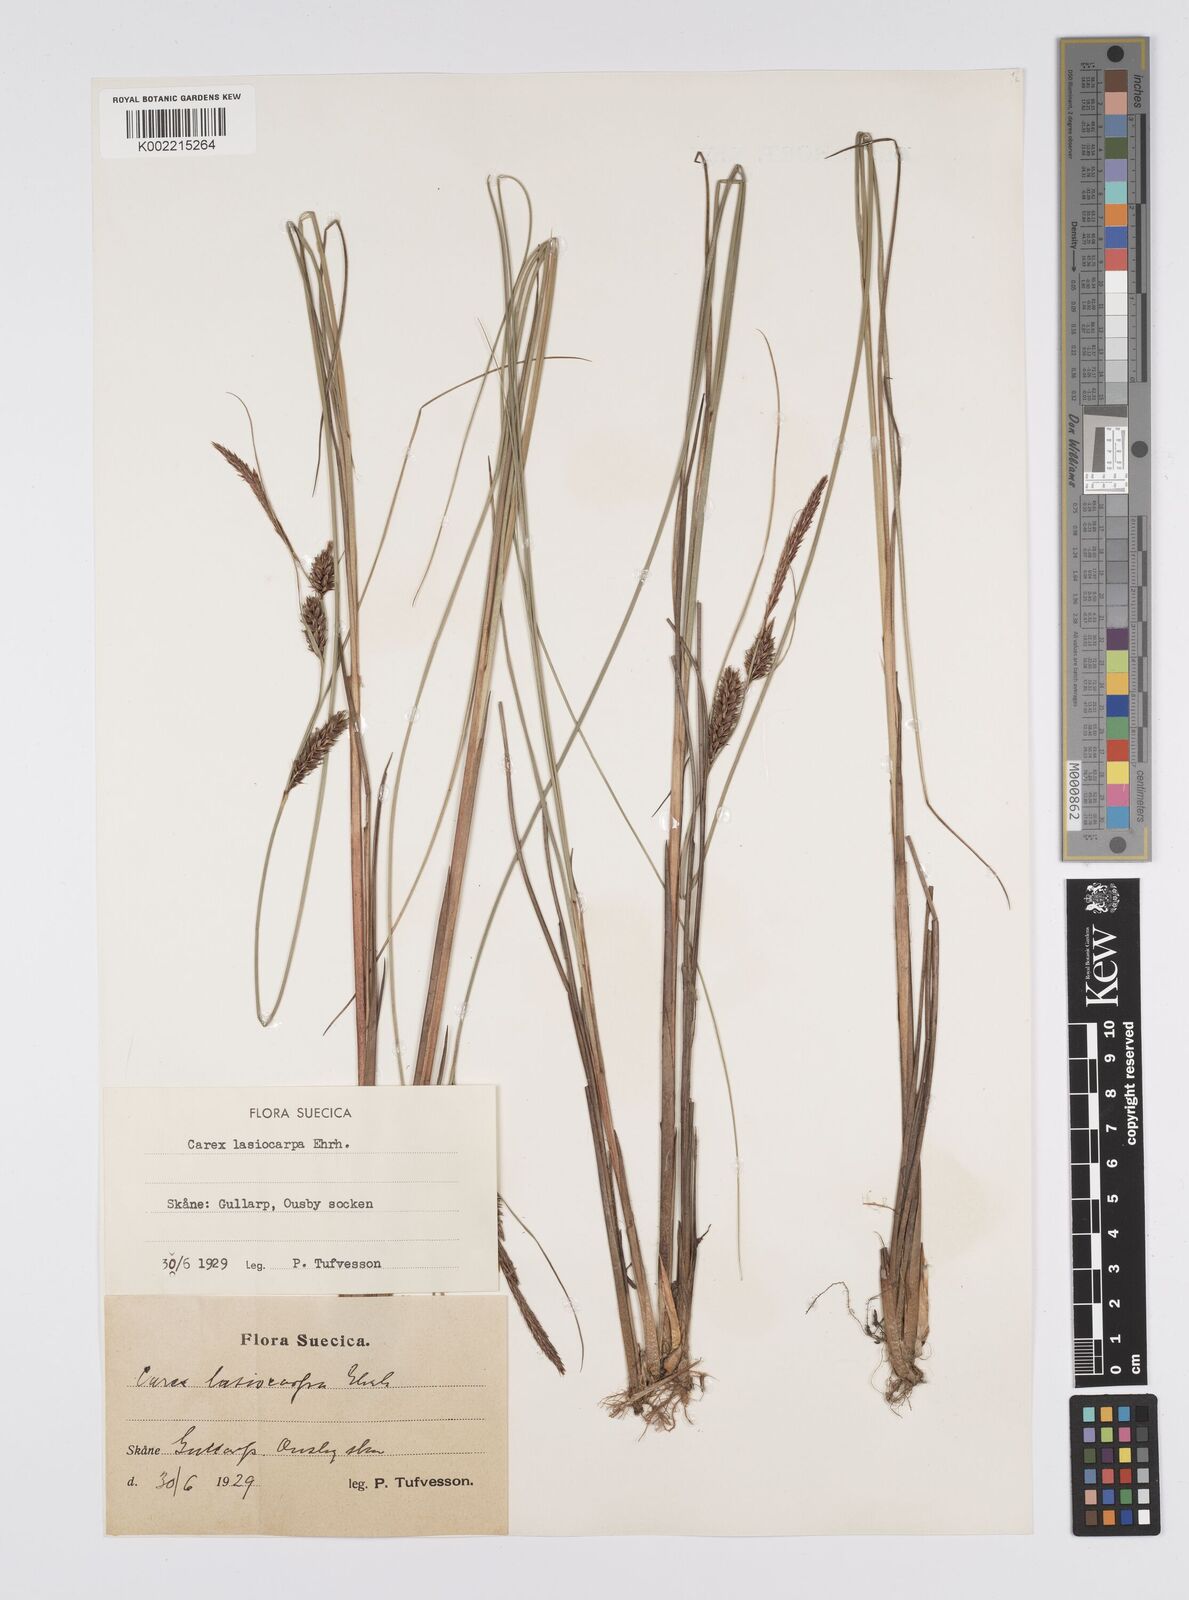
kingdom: Plantae
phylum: Tracheophyta
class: Liliopsida
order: Poales
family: Cyperaceae
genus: Carex
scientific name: Carex lasiocarpa
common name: Slender sedge
